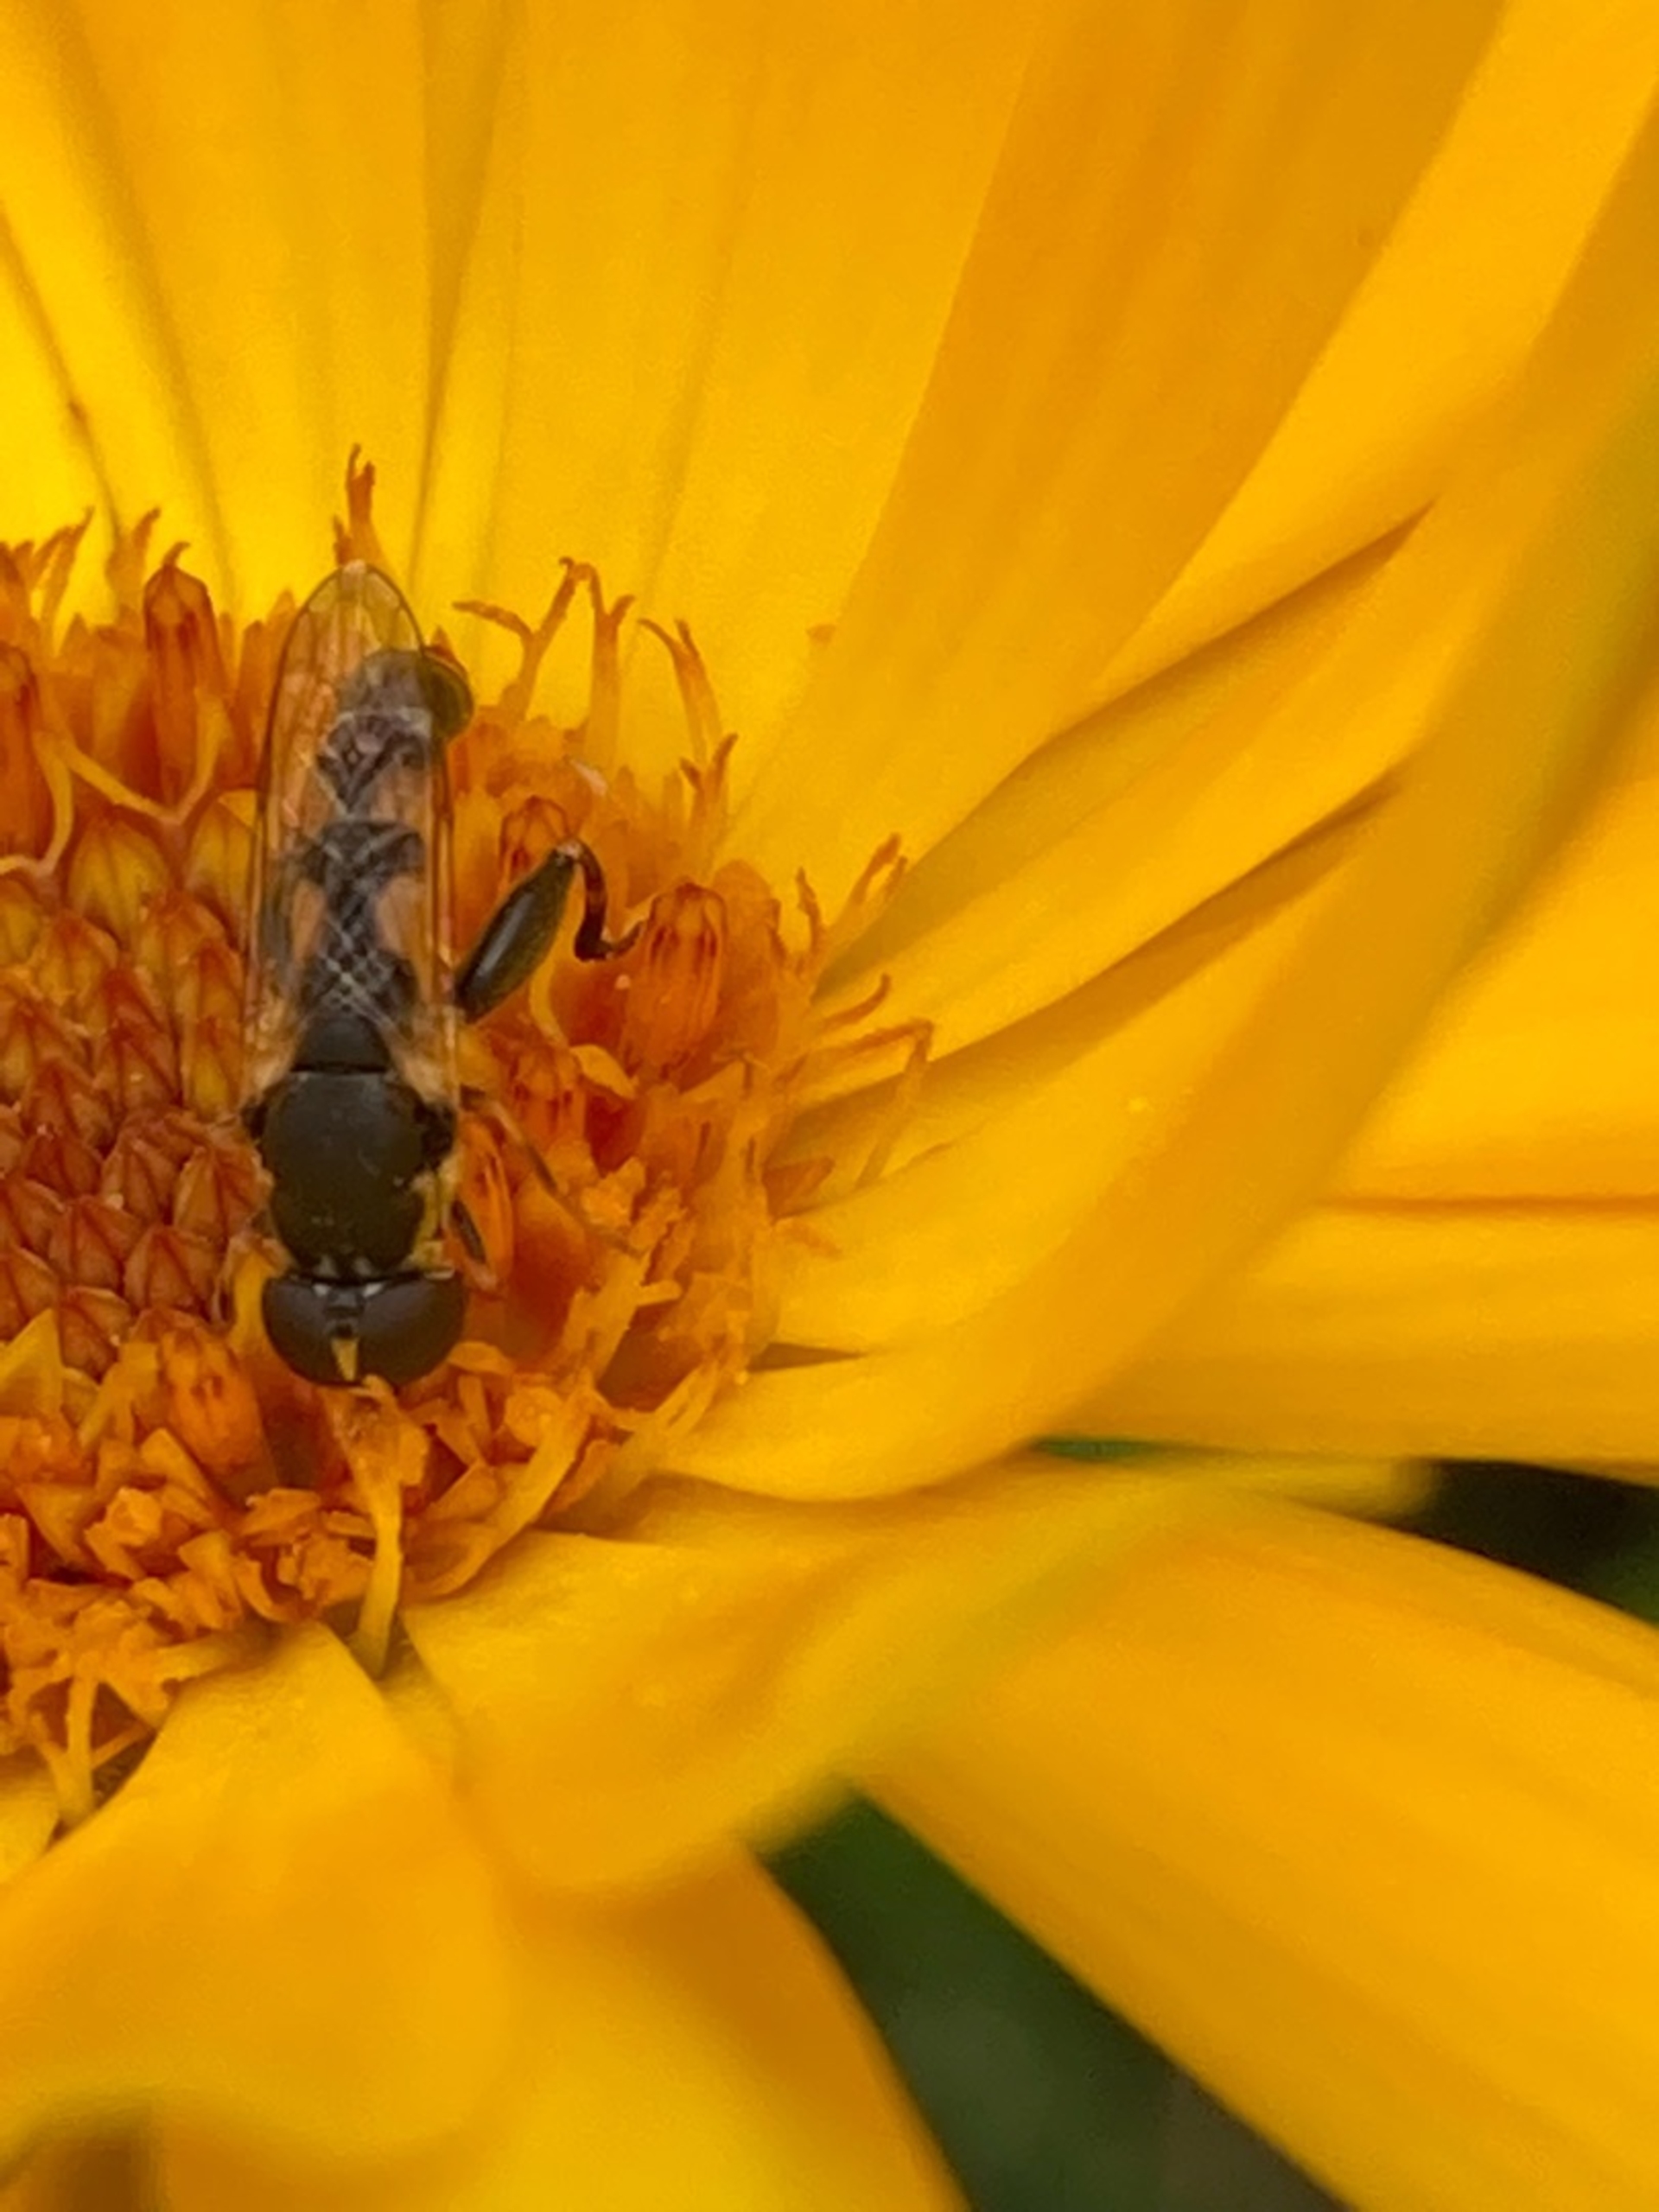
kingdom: Animalia
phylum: Arthropoda
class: Insecta
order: Diptera
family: Syrphidae
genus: Syritta
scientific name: Syritta pipiens
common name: Kompost-svirreflue
